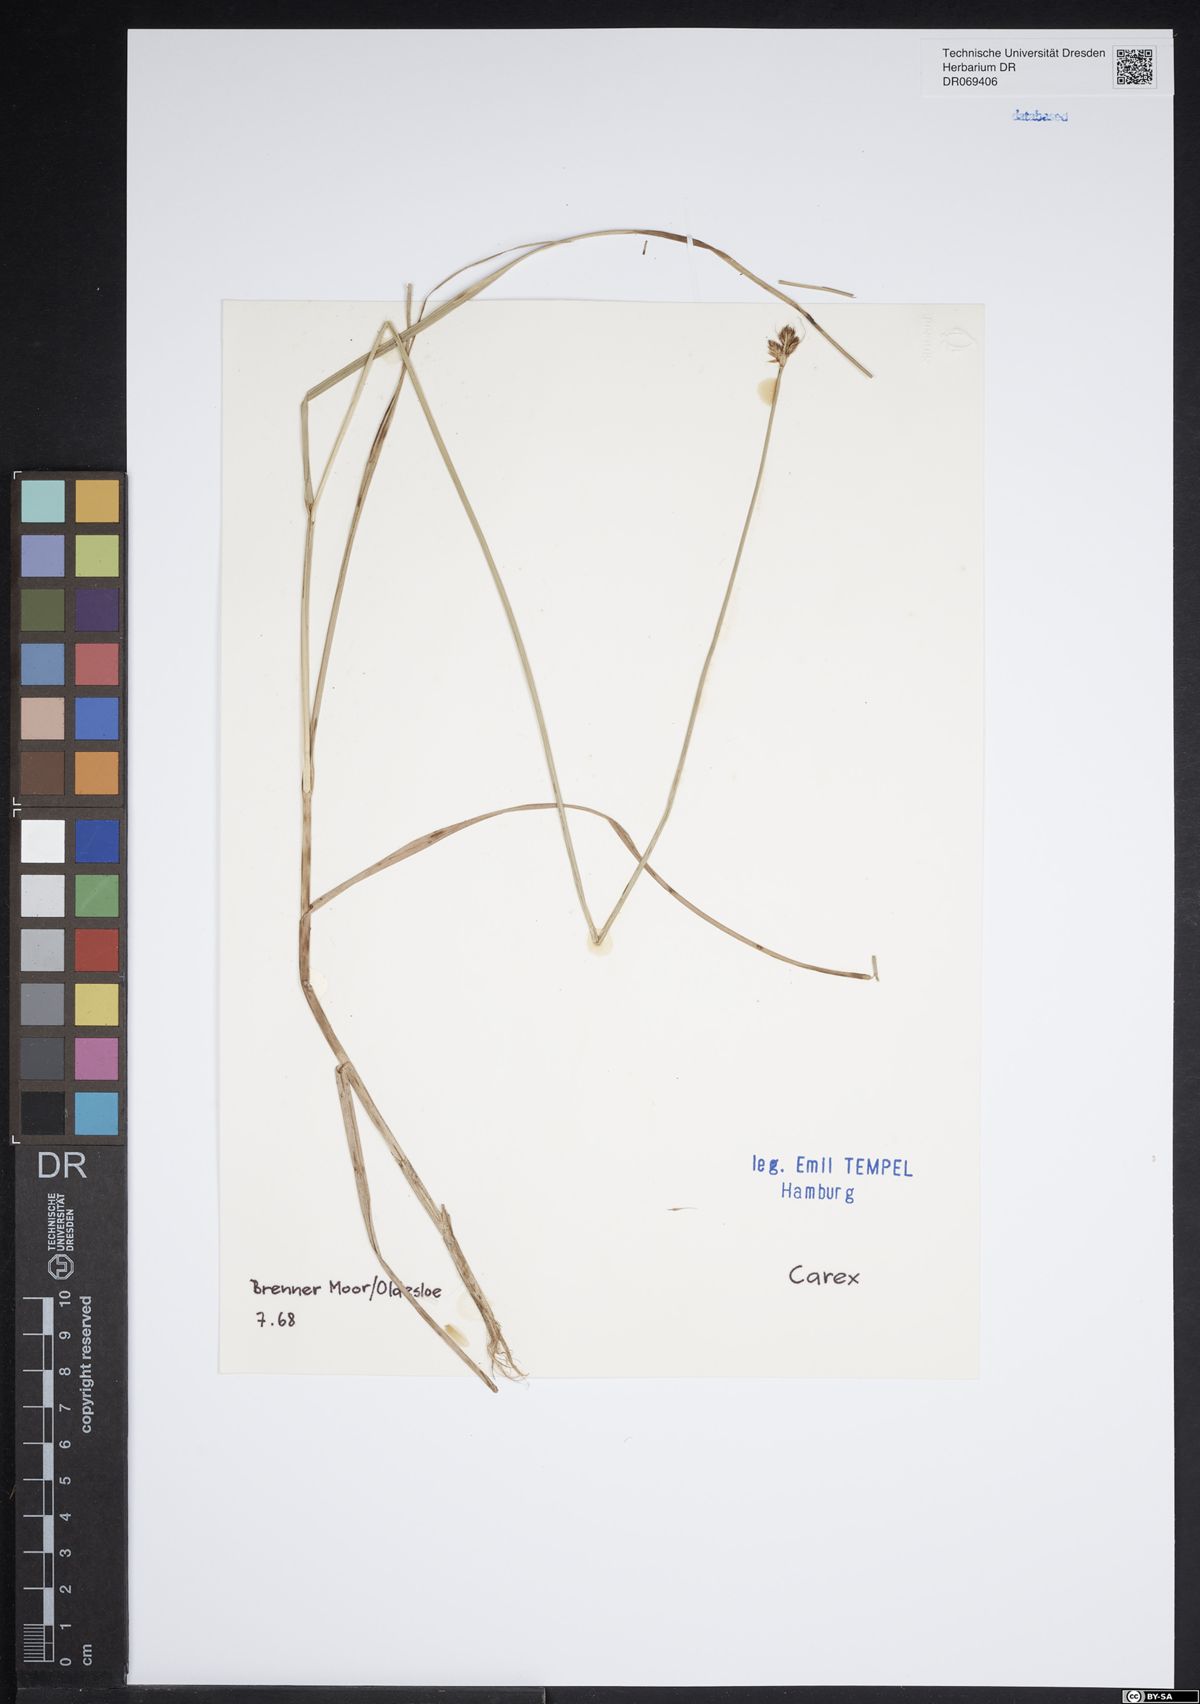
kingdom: Plantae
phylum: Tracheophyta
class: Liliopsida
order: Poales
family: Cyperaceae
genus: Carex
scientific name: Carex
